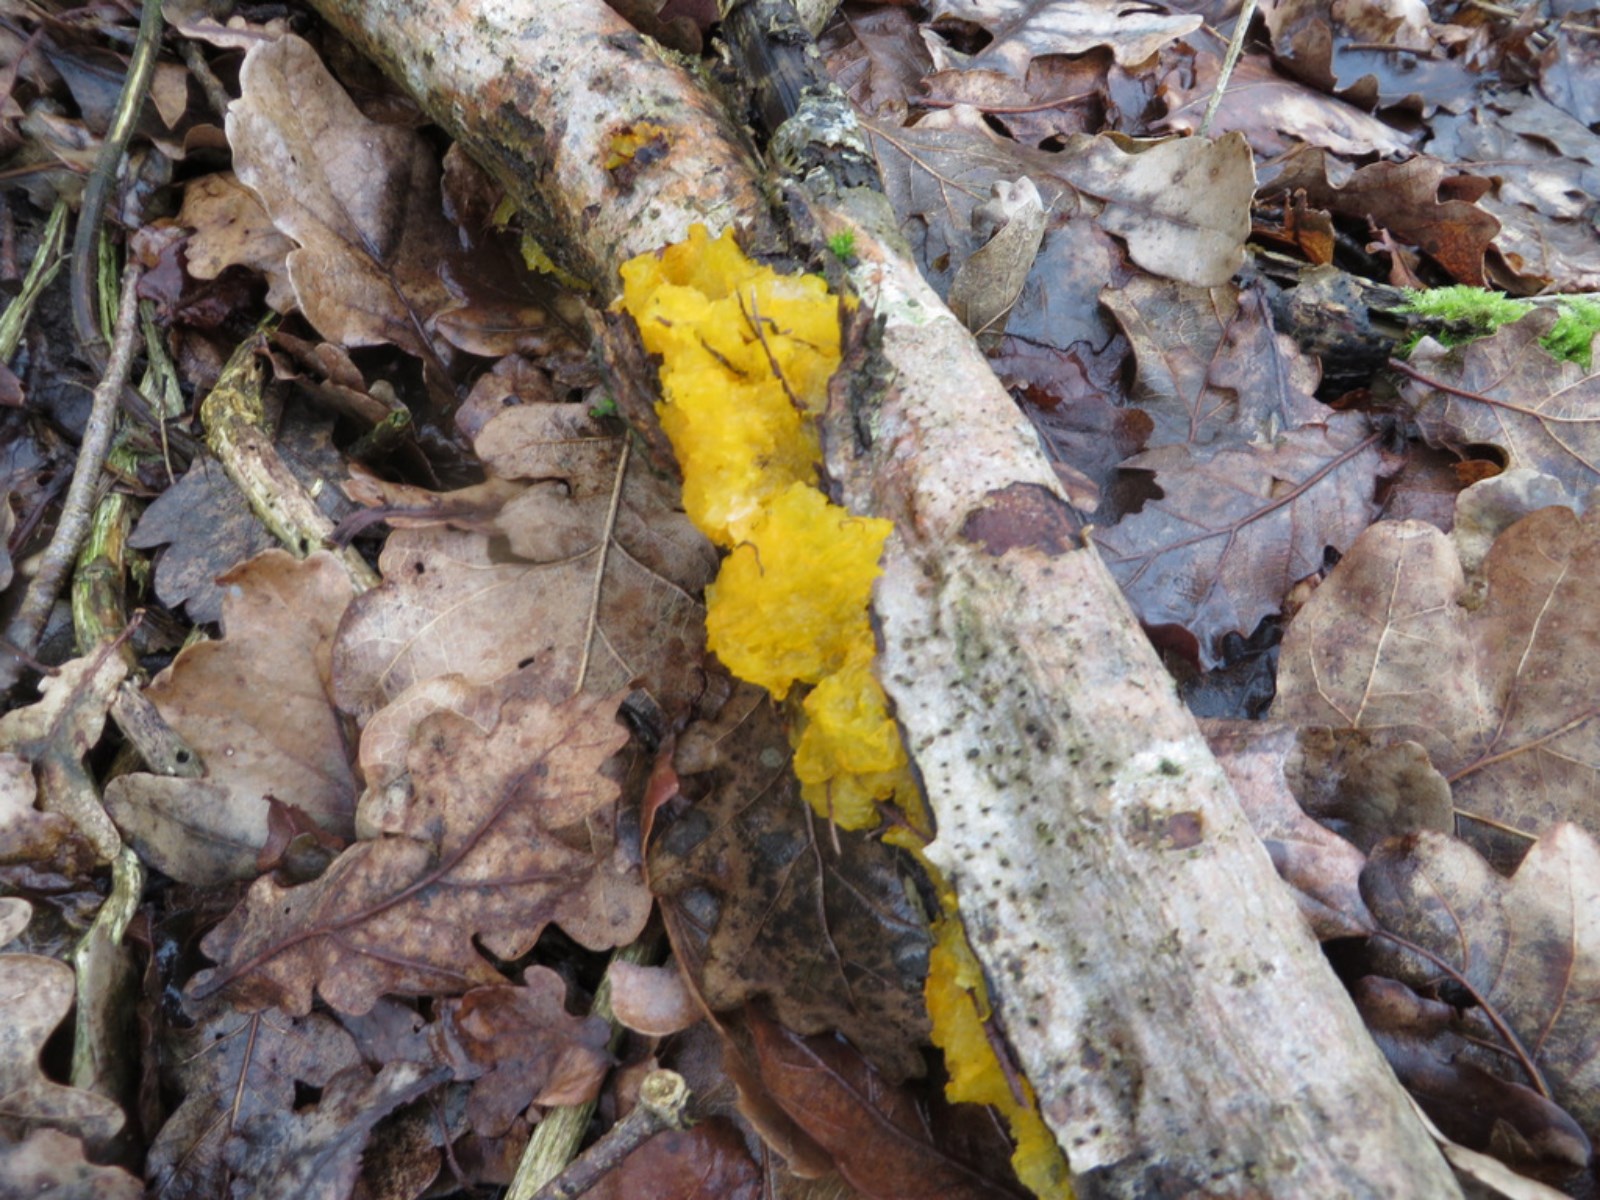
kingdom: Fungi
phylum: Basidiomycota
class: Tremellomycetes
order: Tremellales
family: Tremellaceae
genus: Tremella
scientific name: Tremella mesenterica
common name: gul bævresvamp
